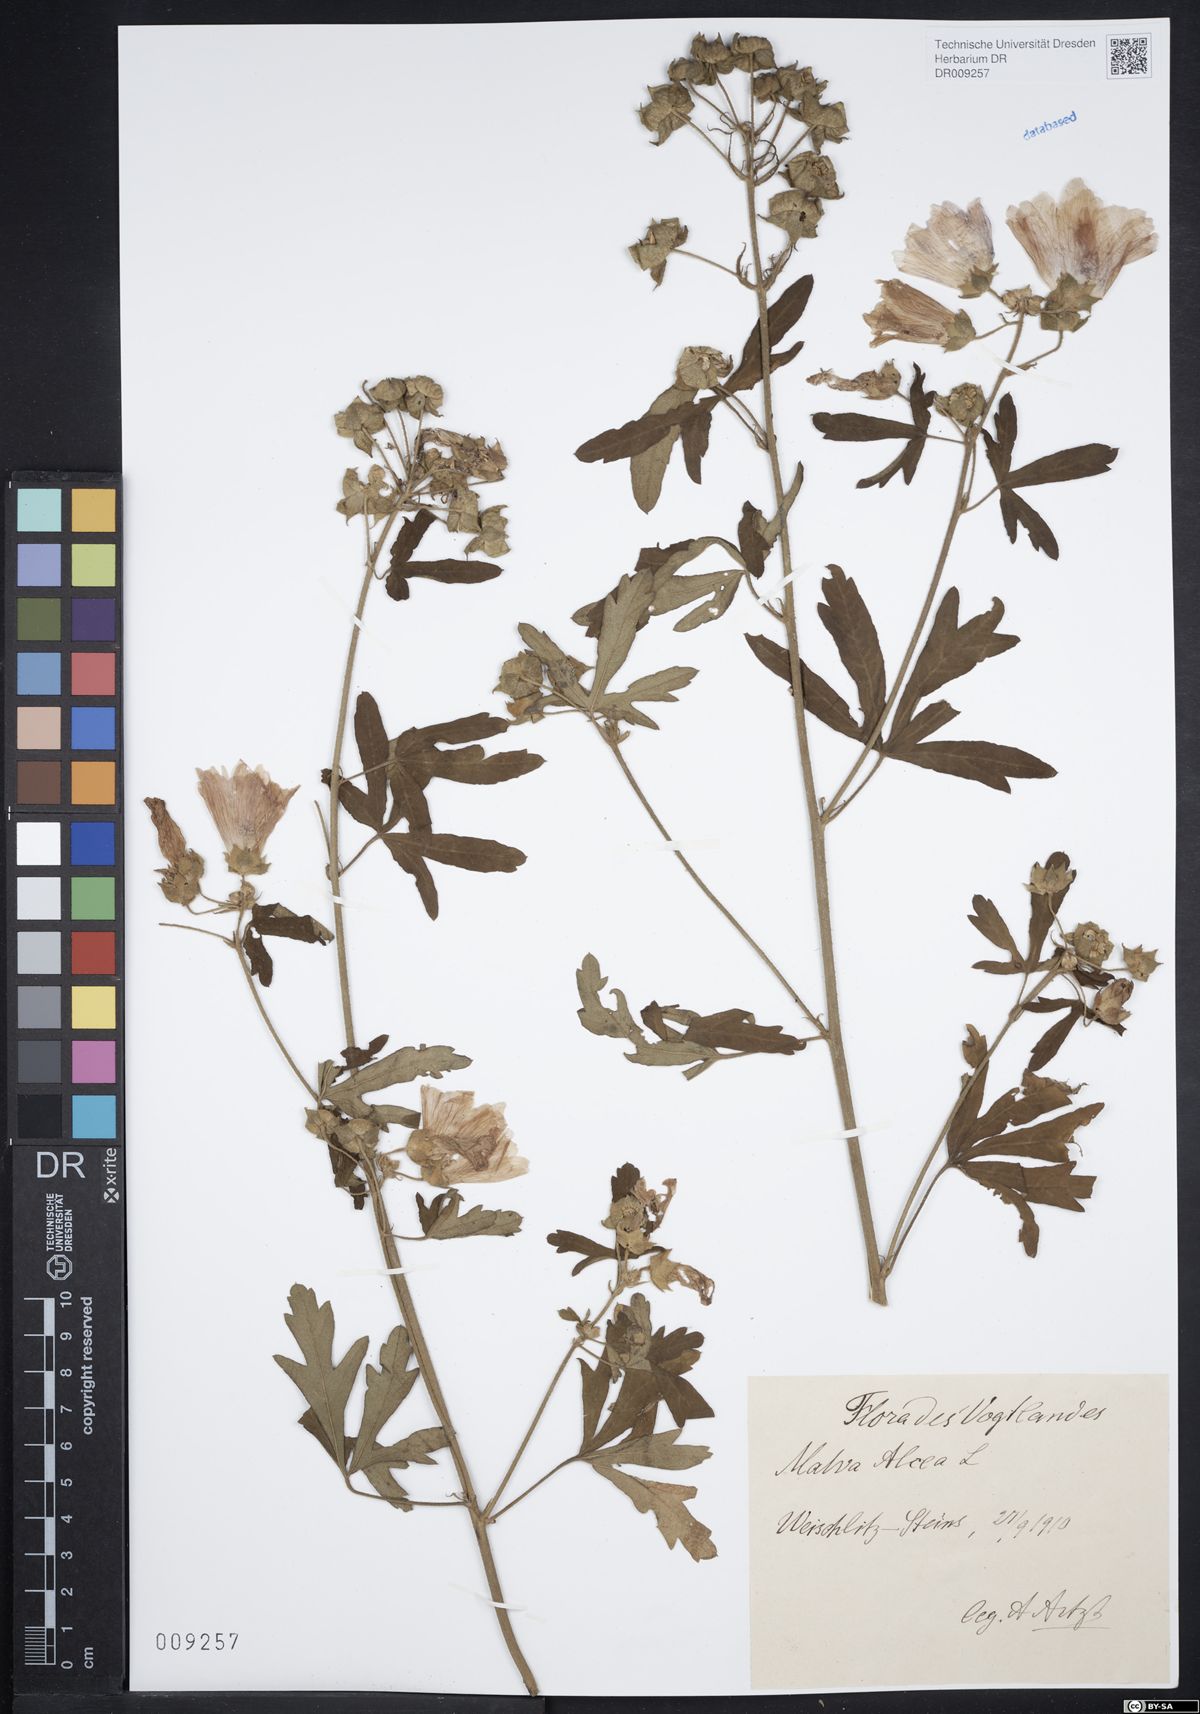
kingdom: Plantae
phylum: Tracheophyta
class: Magnoliopsida
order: Malvales
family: Malvaceae
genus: Malva
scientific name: Malva alcea
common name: Greater musk-mallow
